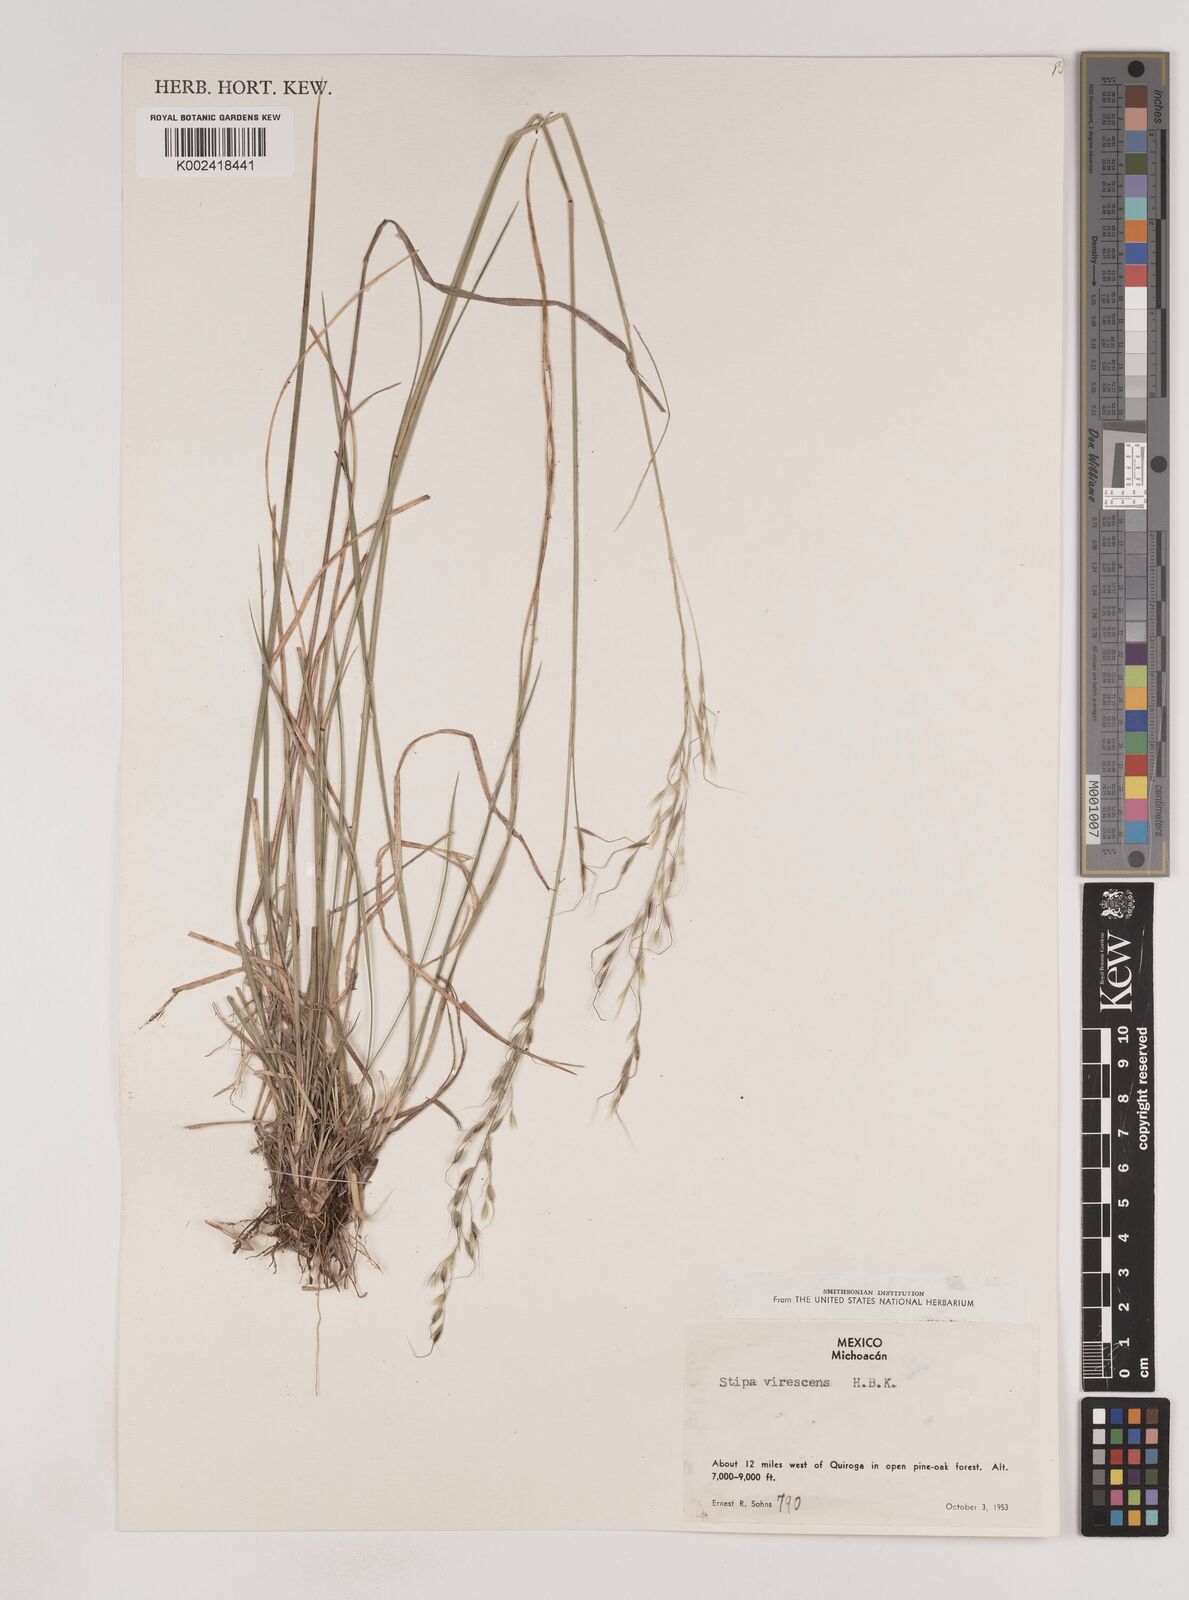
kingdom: Plantae
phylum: Tracheophyta
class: Liliopsida
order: Poales
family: Poaceae
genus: Piptochaetium
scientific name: Piptochaetium virescens
